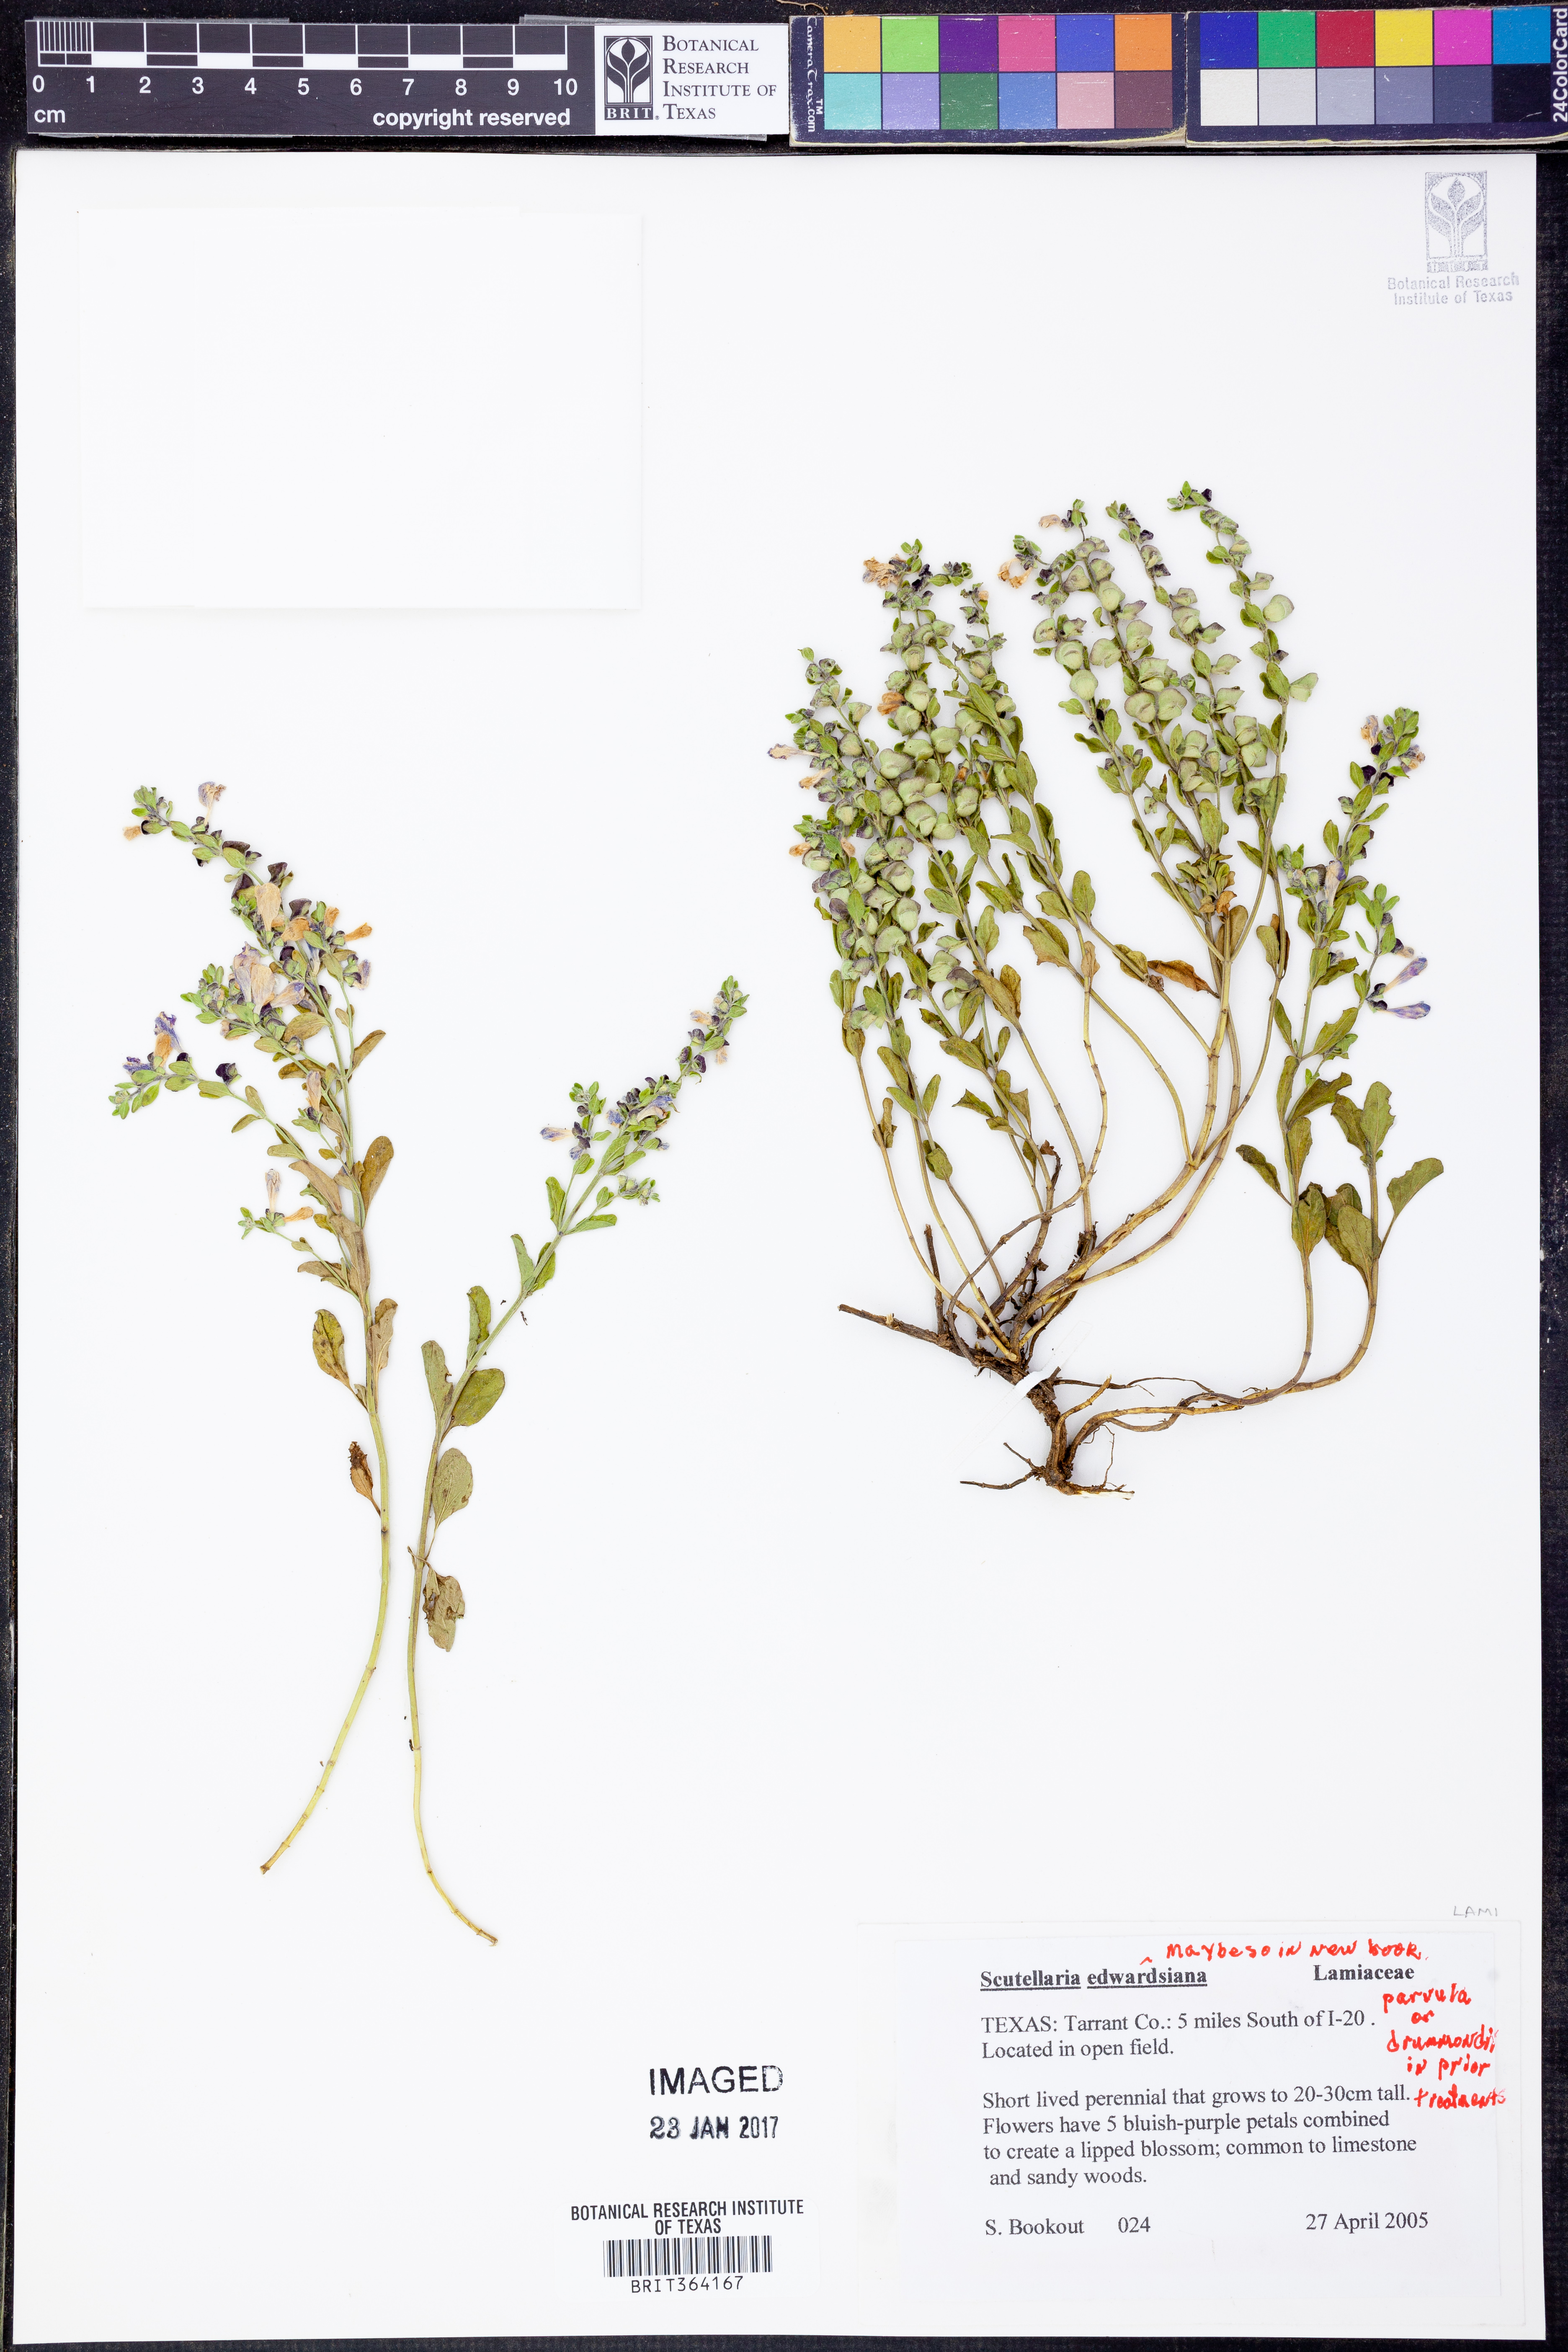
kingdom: Plantae
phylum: Tracheophyta
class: Magnoliopsida
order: Lamiales
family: Lamiaceae
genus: Scutellaria
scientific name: Scutellaria
